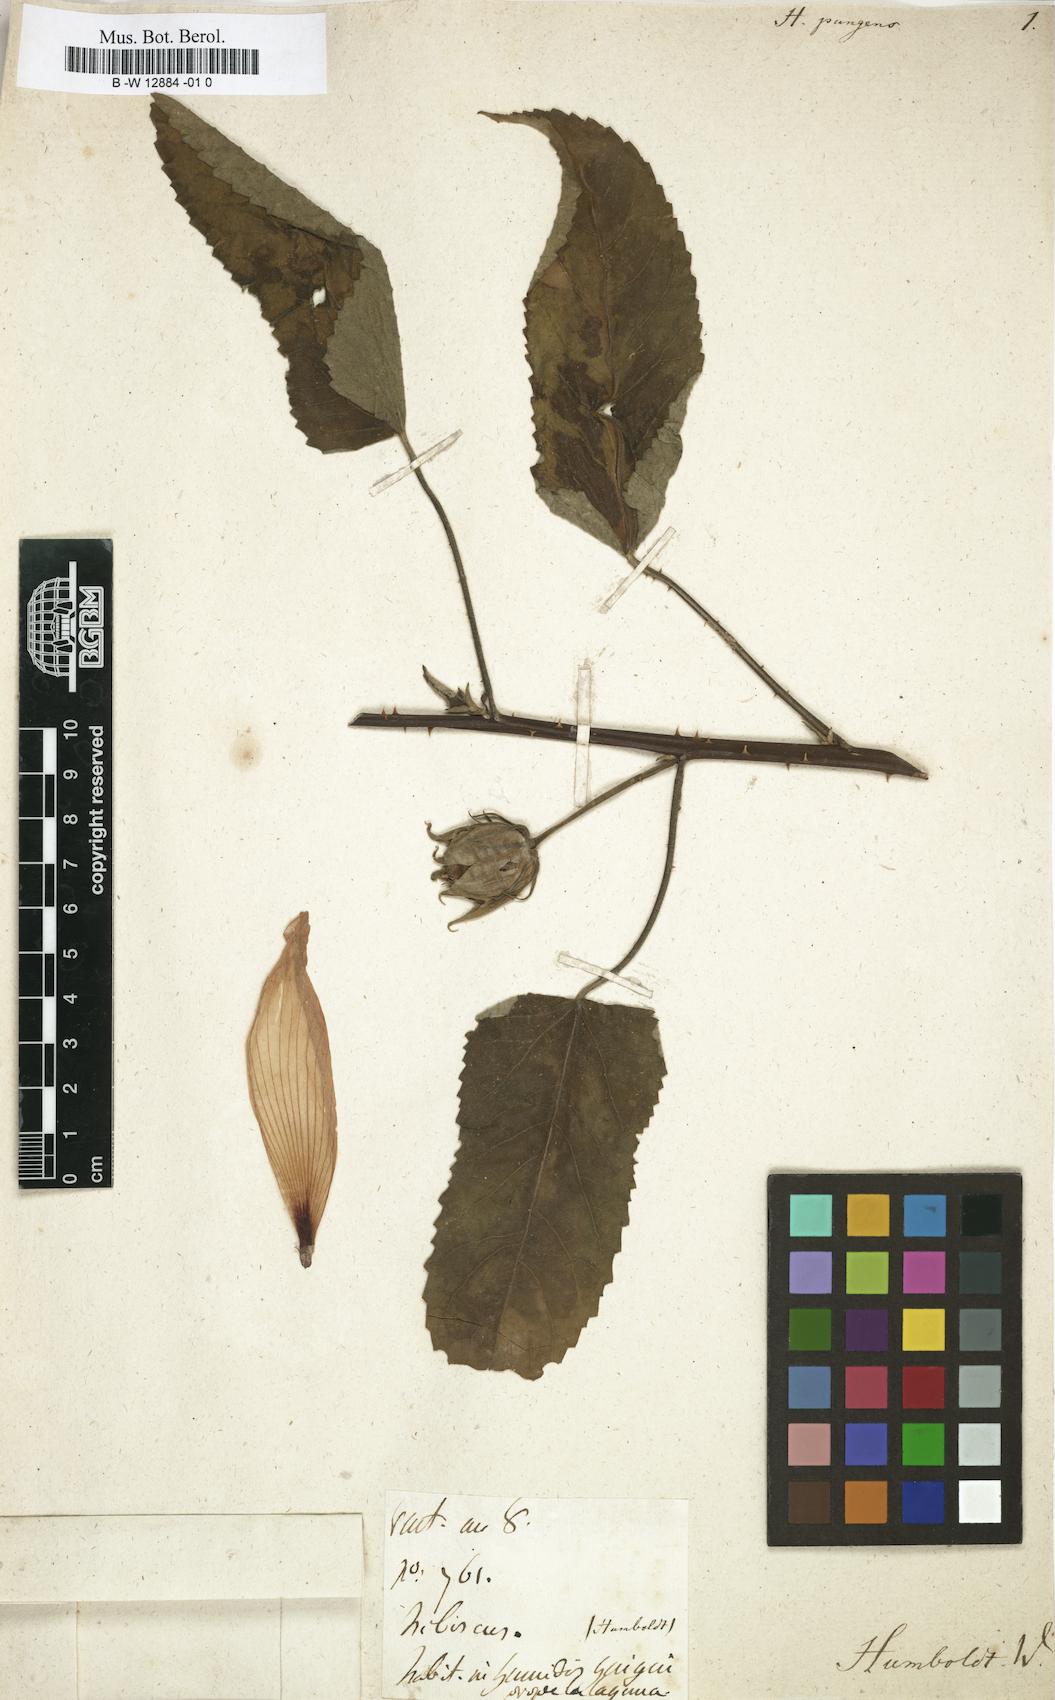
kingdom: Plantae
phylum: Tracheophyta
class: Magnoliopsida
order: Malvales
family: Malvaceae
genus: Abelmoschus
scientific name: Abelmoschus manihot
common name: Sunset muskmallow
